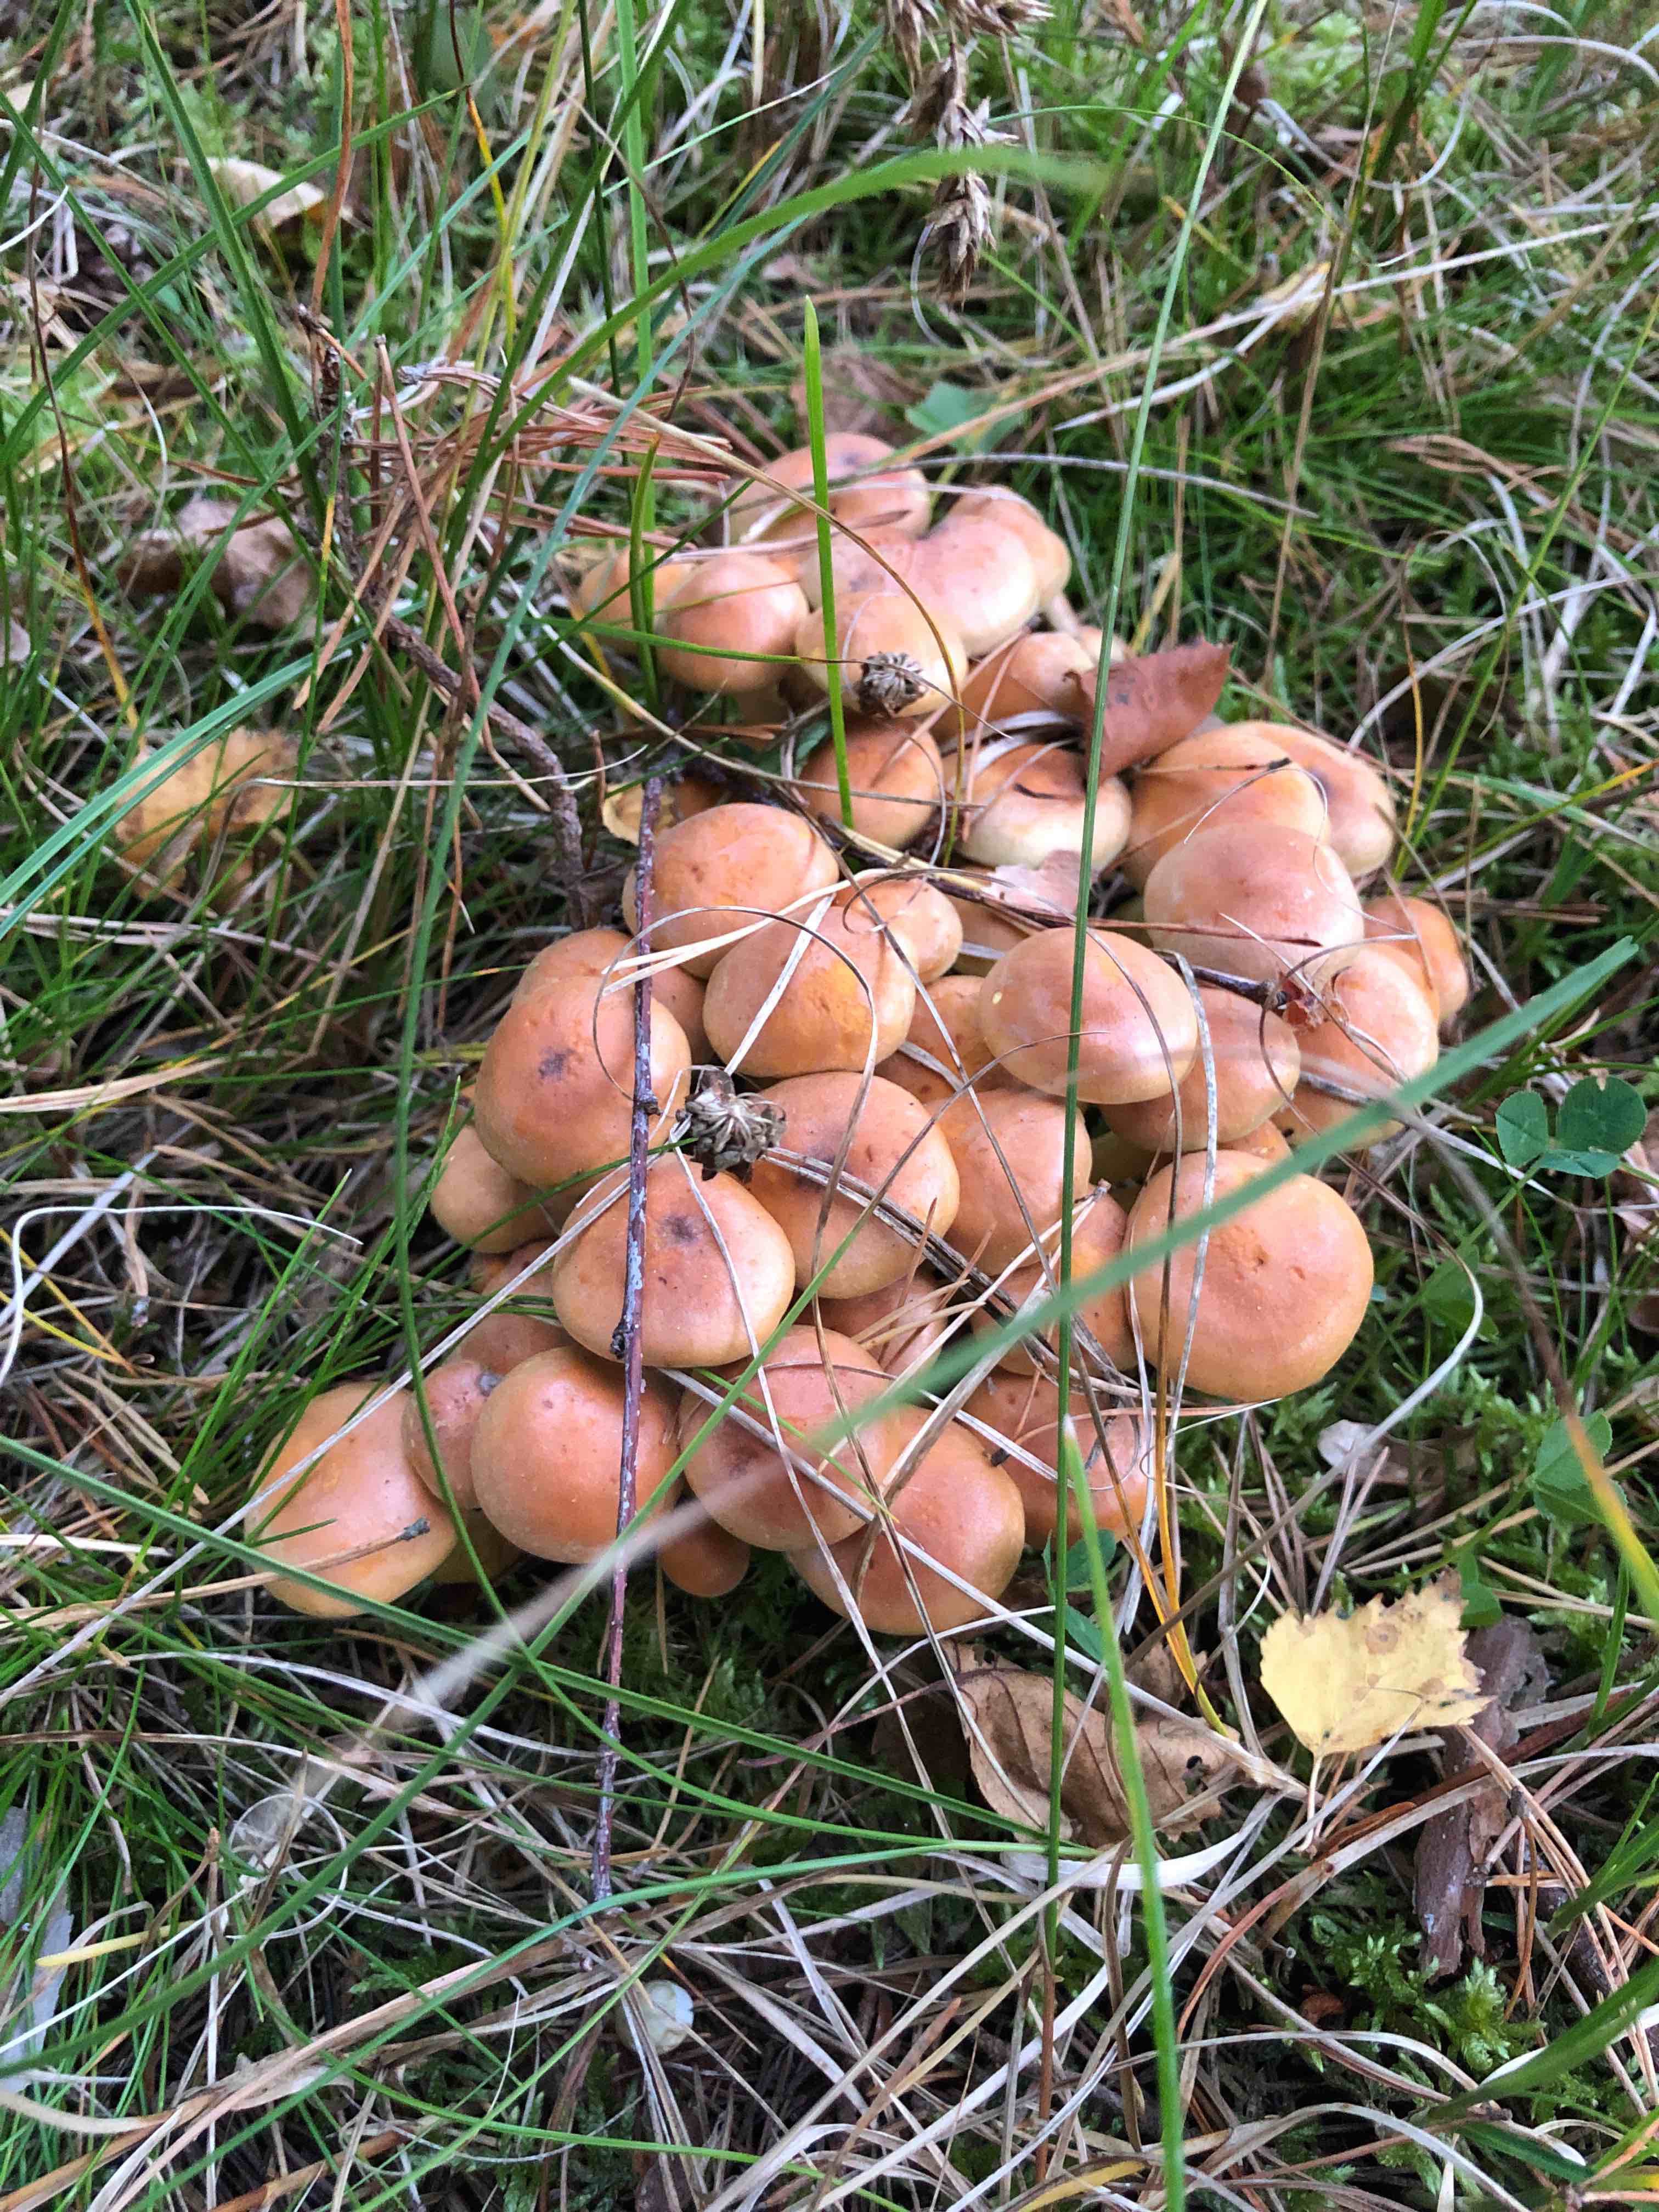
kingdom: Fungi
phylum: Basidiomycota
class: Agaricomycetes
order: Agaricales
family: Strophariaceae
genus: Hypholoma
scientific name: Hypholoma lateritium
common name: teglrød svovlhat
